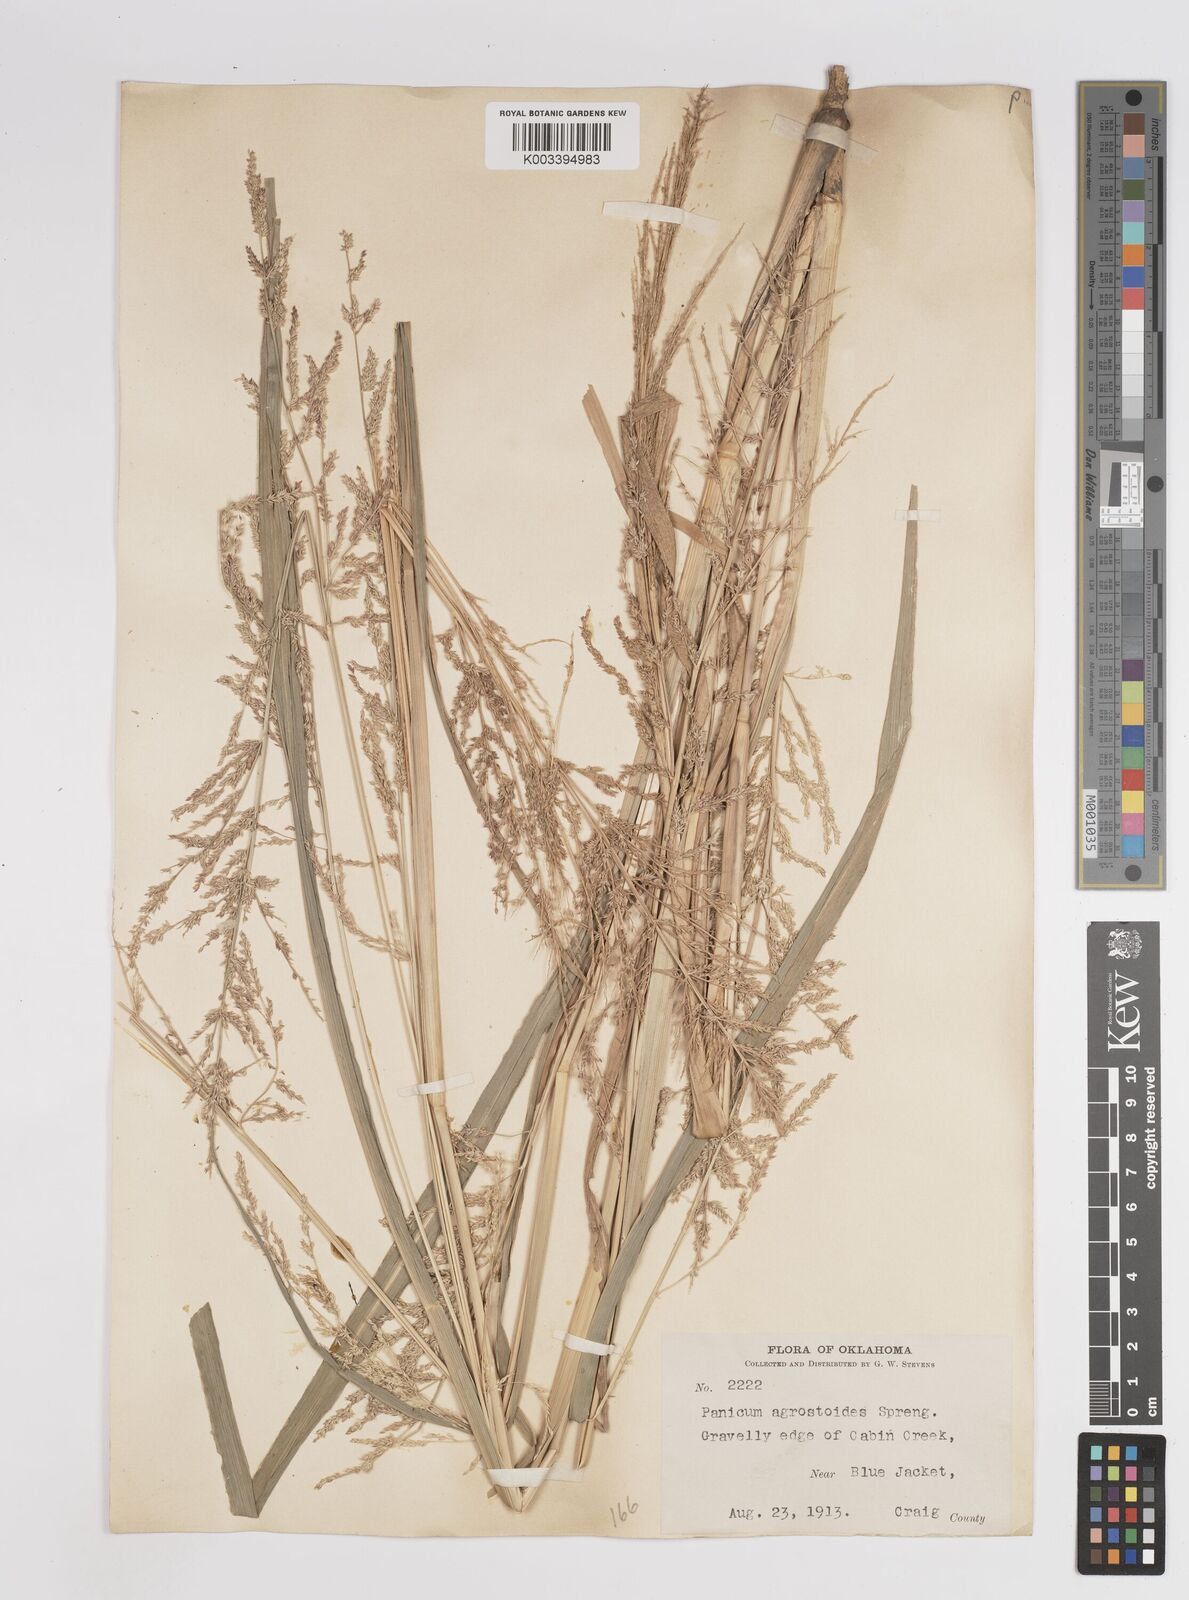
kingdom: Plantae
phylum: Tracheophyta
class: Liliopsida
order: Poales
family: Poaceae
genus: Steinchisma
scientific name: Steinchisma laxum
